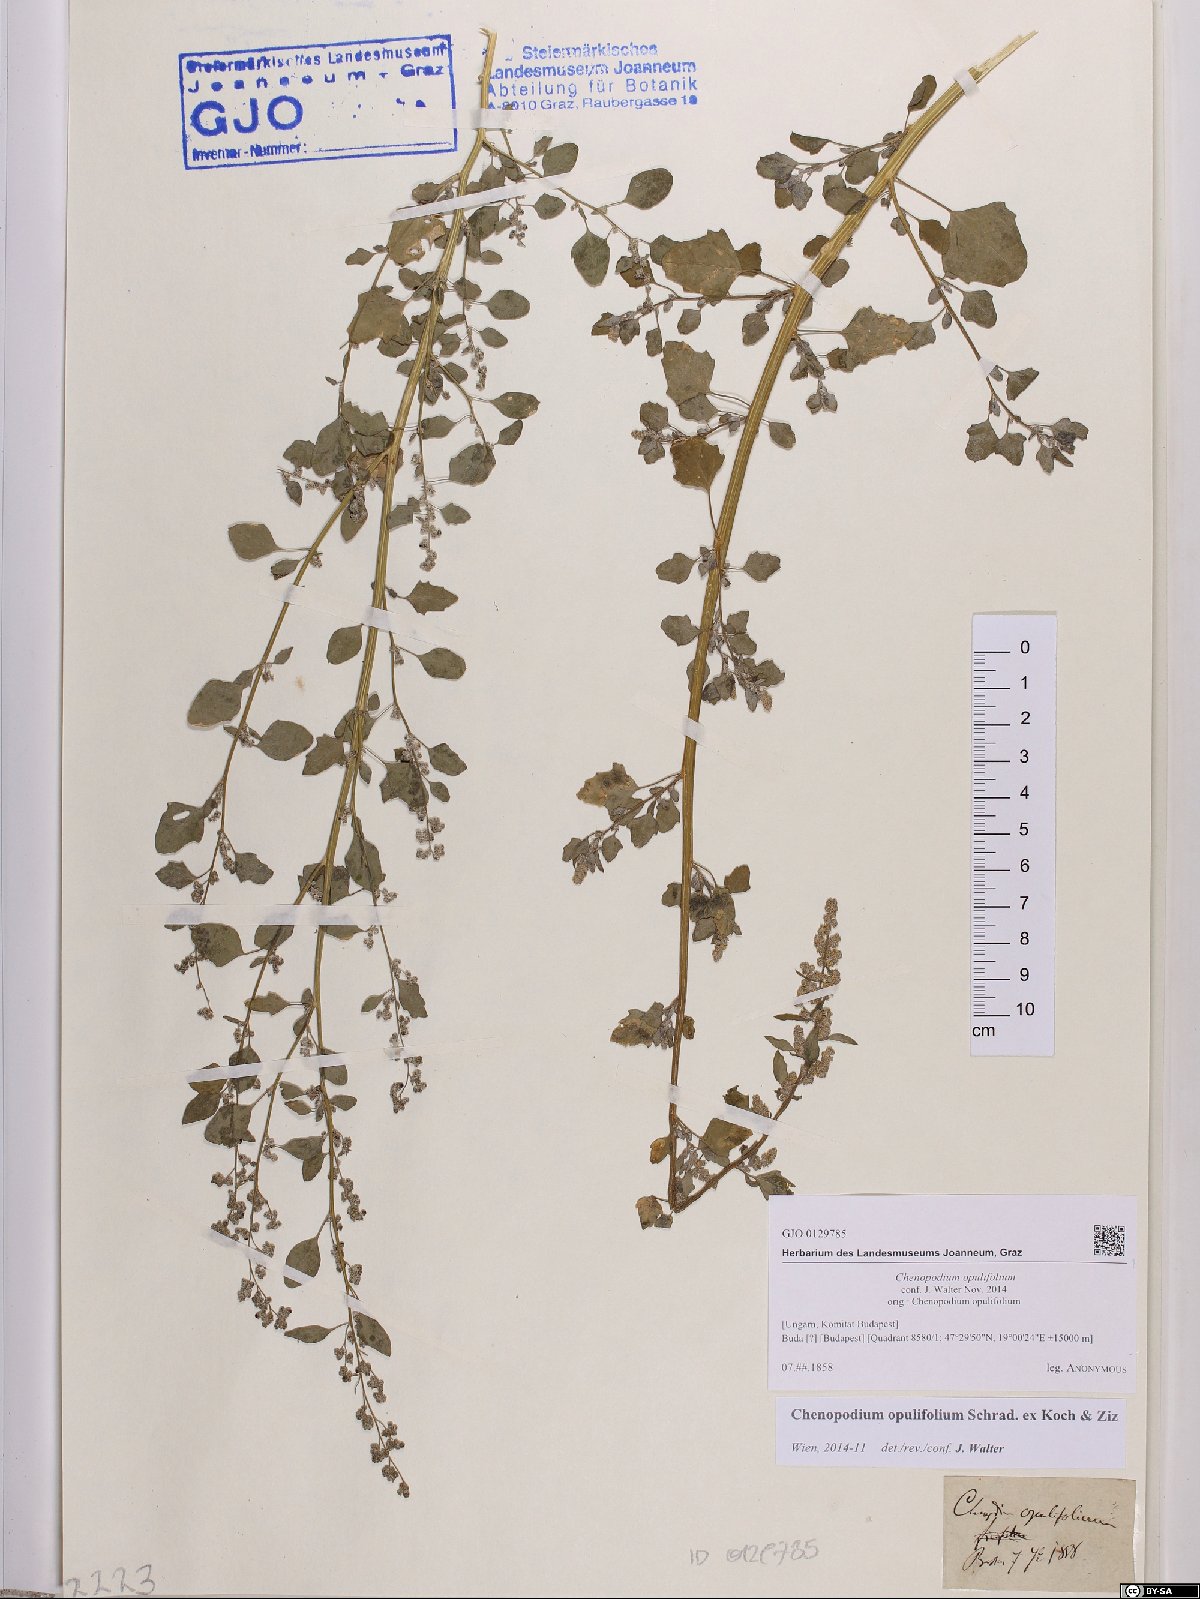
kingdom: Plantae
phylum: Tracheophyta
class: Magnoliopsida
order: Caryophyllales
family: Amaranthaceae
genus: Chenopodium
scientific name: Chenopodium opulifolium
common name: Grey goosefoot
